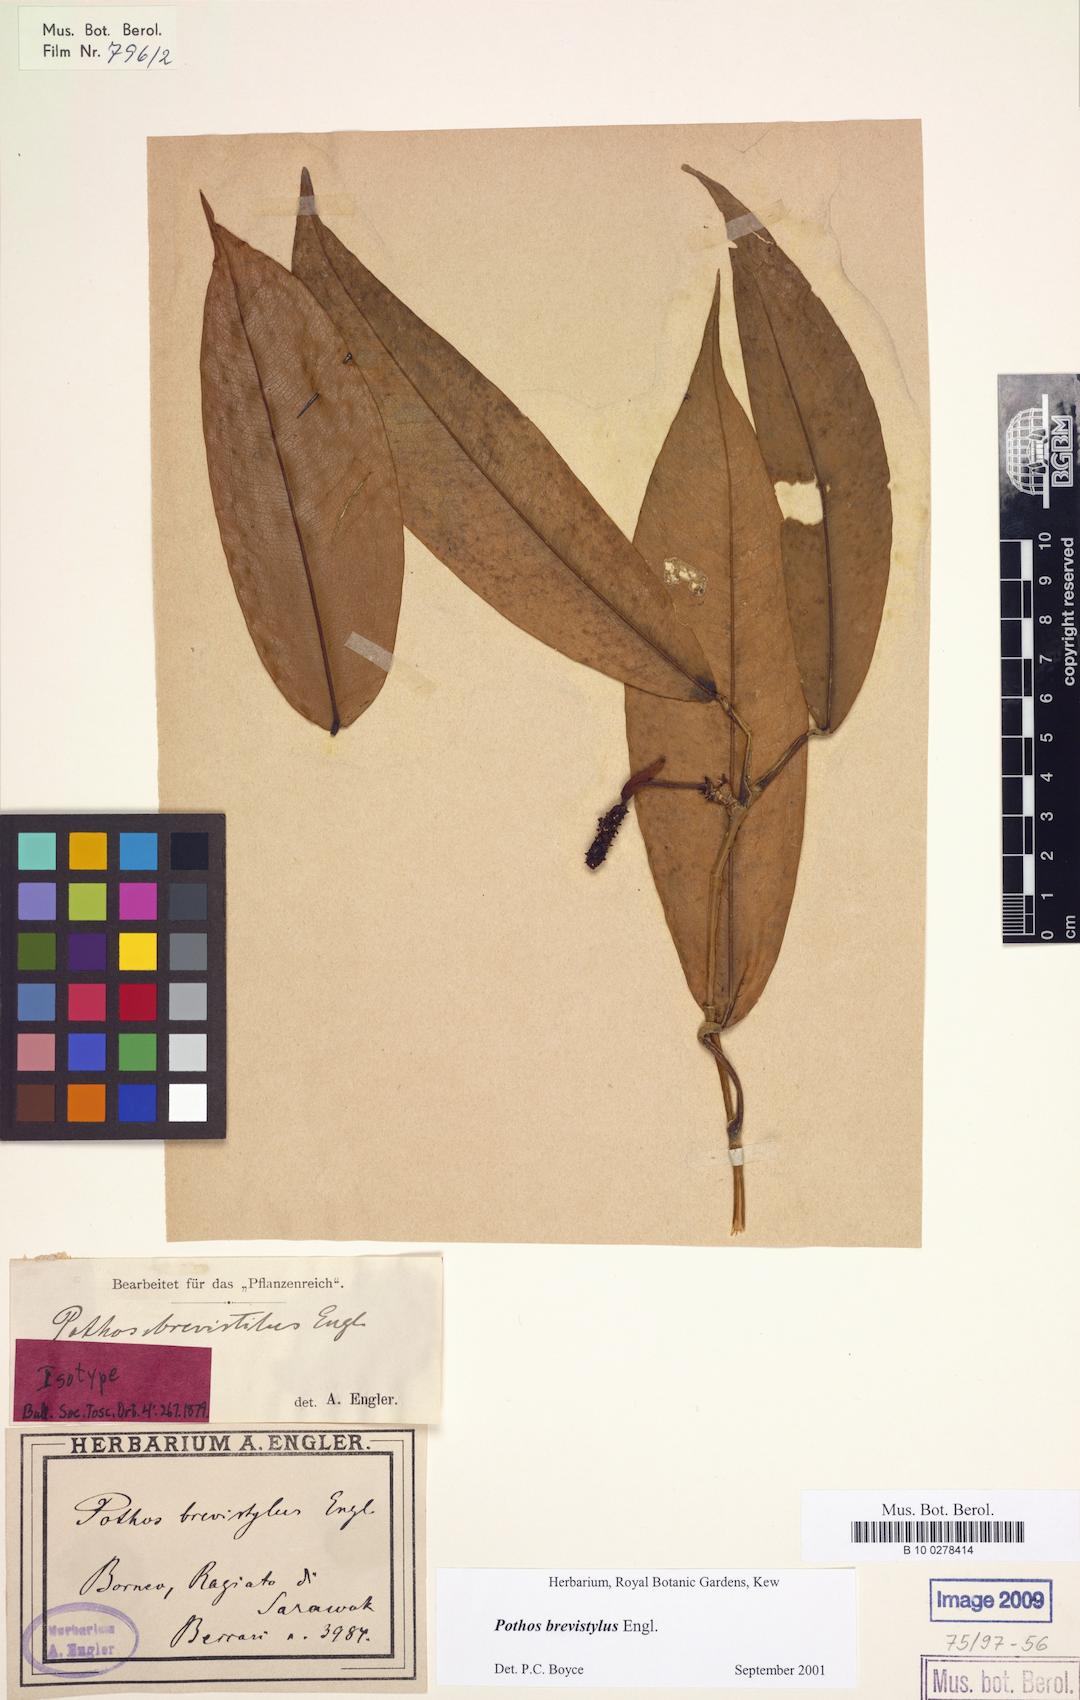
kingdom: Plantae
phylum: Tracheophyta
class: Liliopsida
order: Alismatales
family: Araceae
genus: Pothos
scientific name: Pothos brevistylus
